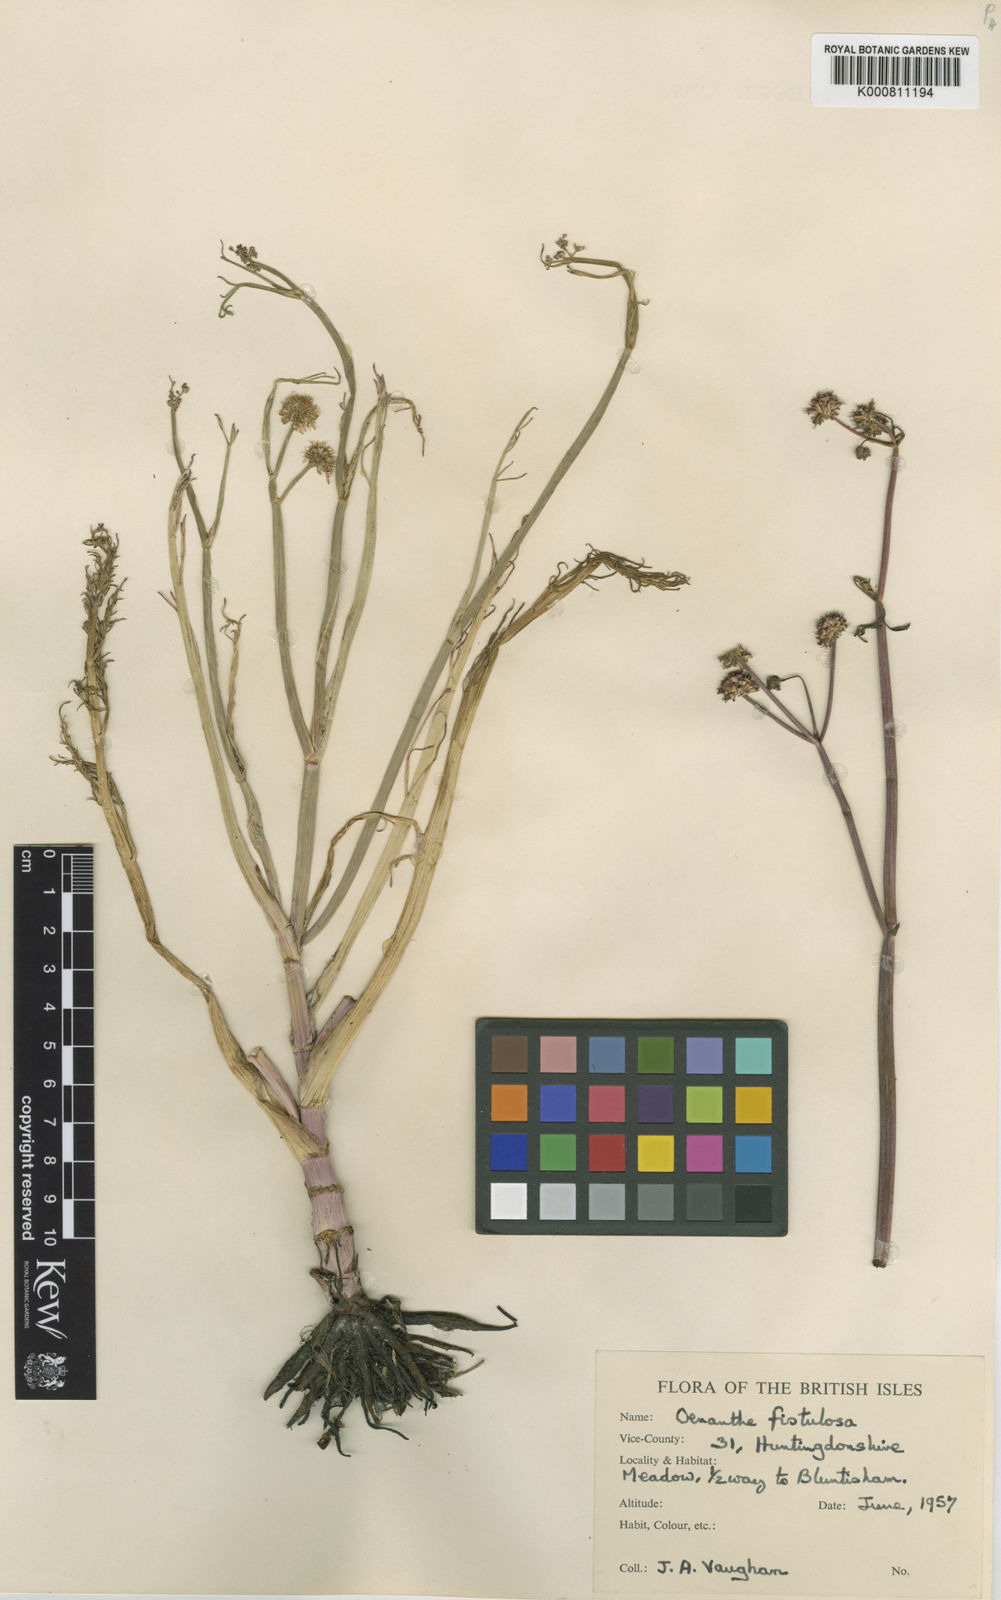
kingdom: Plantae
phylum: Tracheophyta
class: Magnoliopsida
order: Apiales
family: Apiaceae
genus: Oenanthe
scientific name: Oenanthe fistulosa
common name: Tubular water-dropwort
